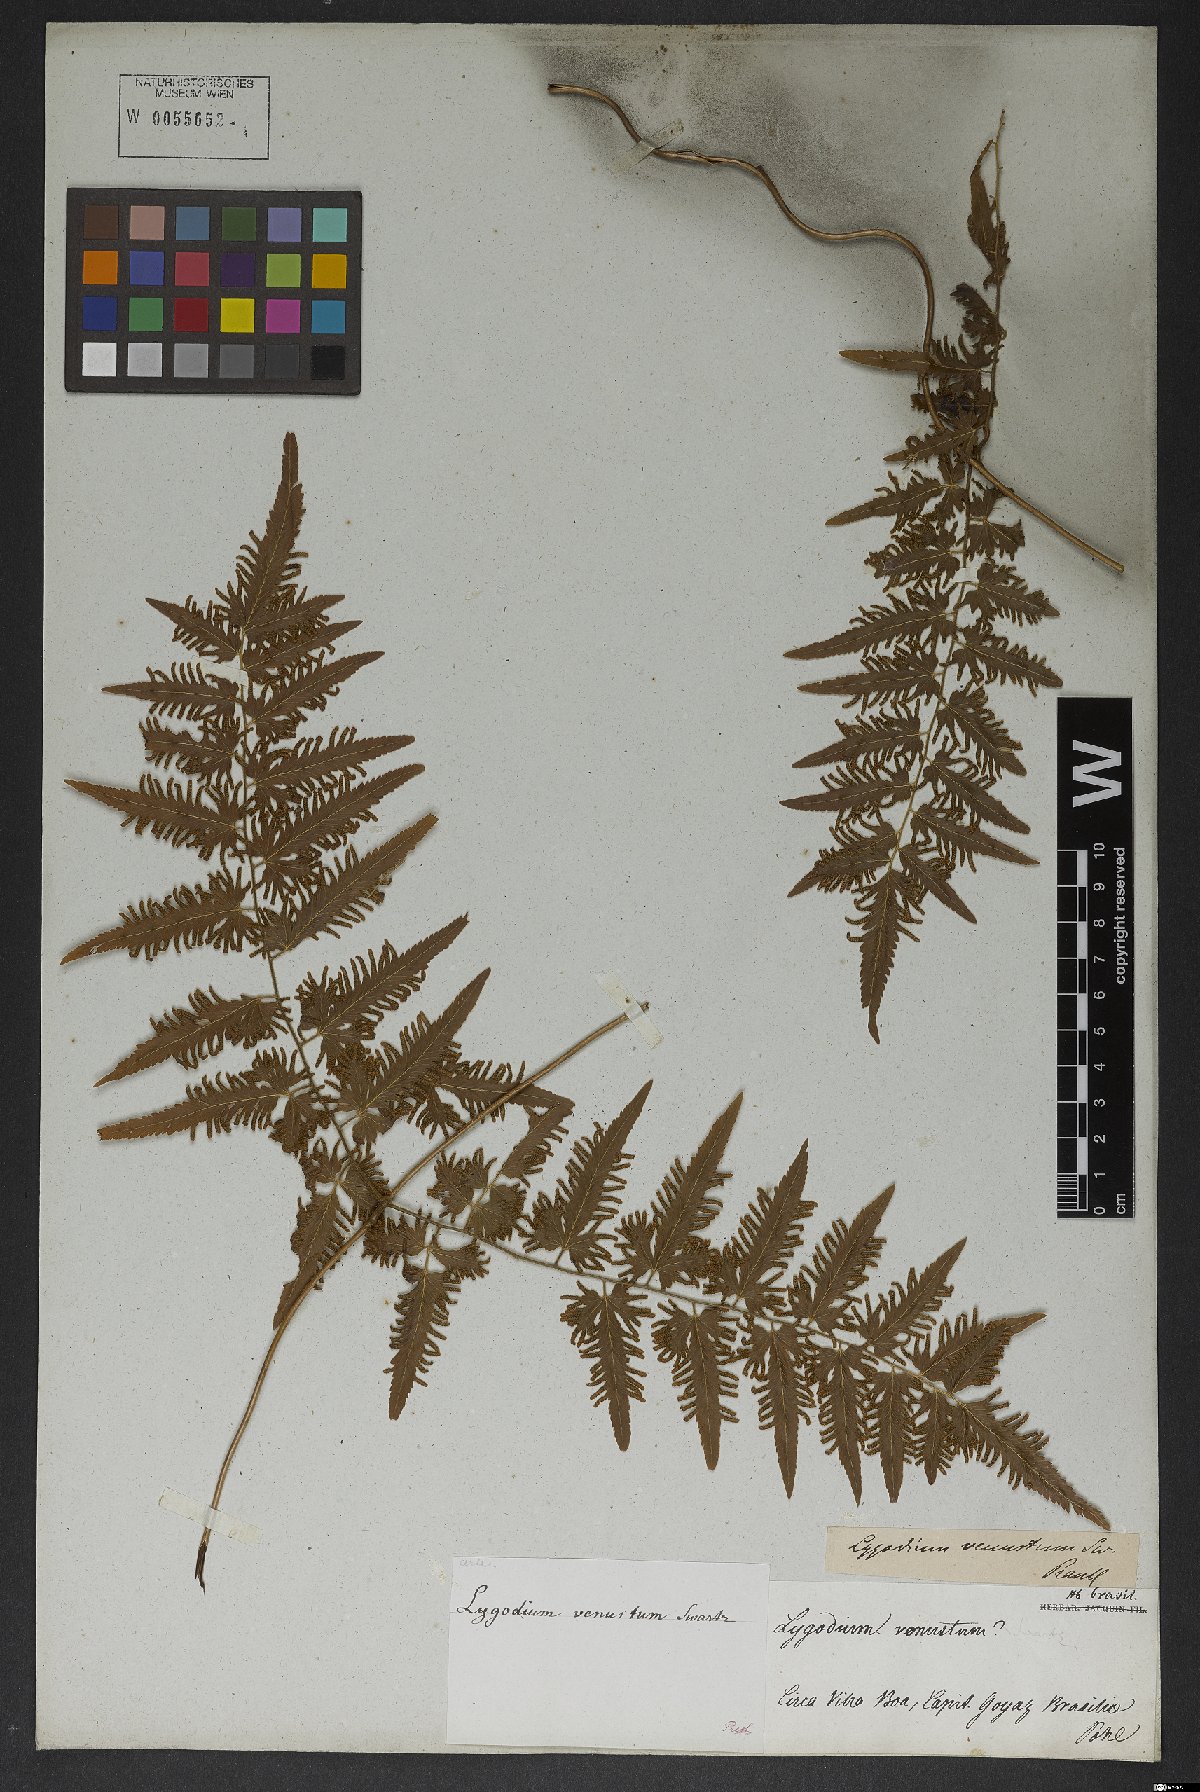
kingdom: Plantae
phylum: Tracheophyta
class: Polypodiopsida
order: Schizaeales
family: Lygodiaceae
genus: Lygodium
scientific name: Lygodium venustum
